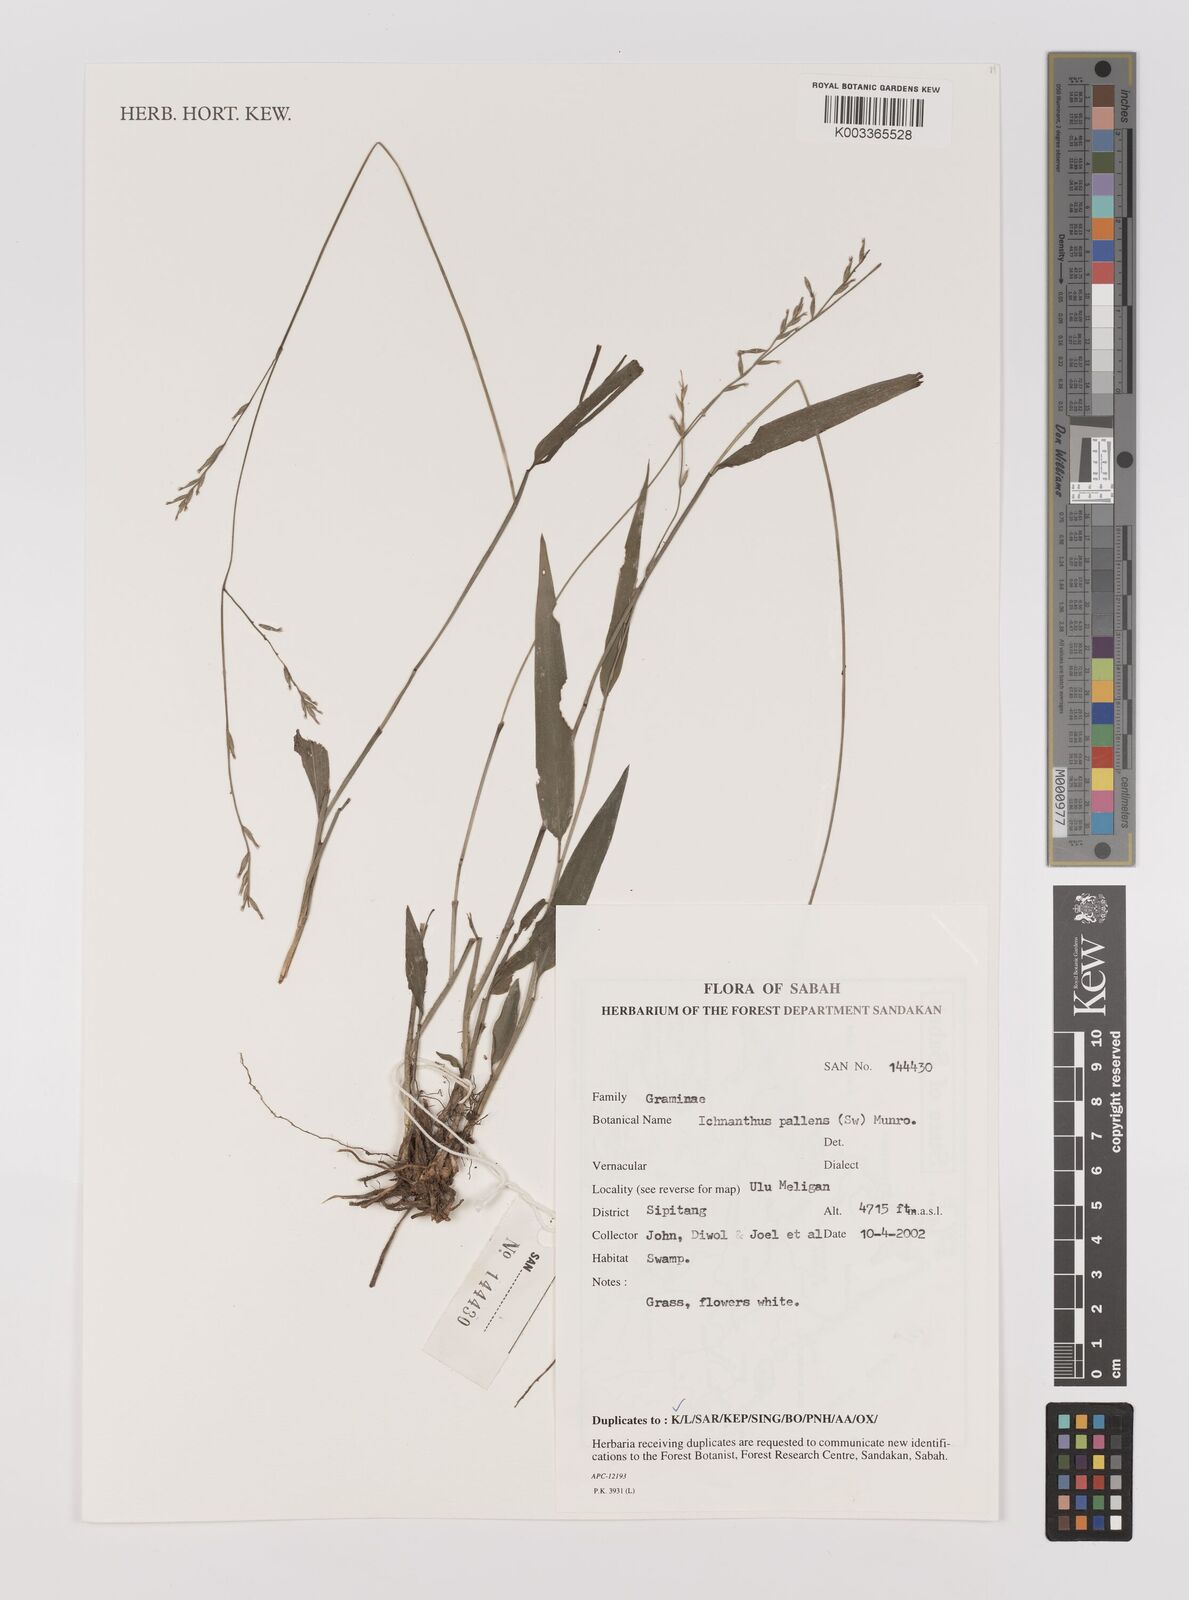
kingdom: Plantae
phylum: Tracheophyta
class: Liliopsida
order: Poales
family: Poaceae
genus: Ichnanthus
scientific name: Ichnanthus pallens
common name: Water grass
